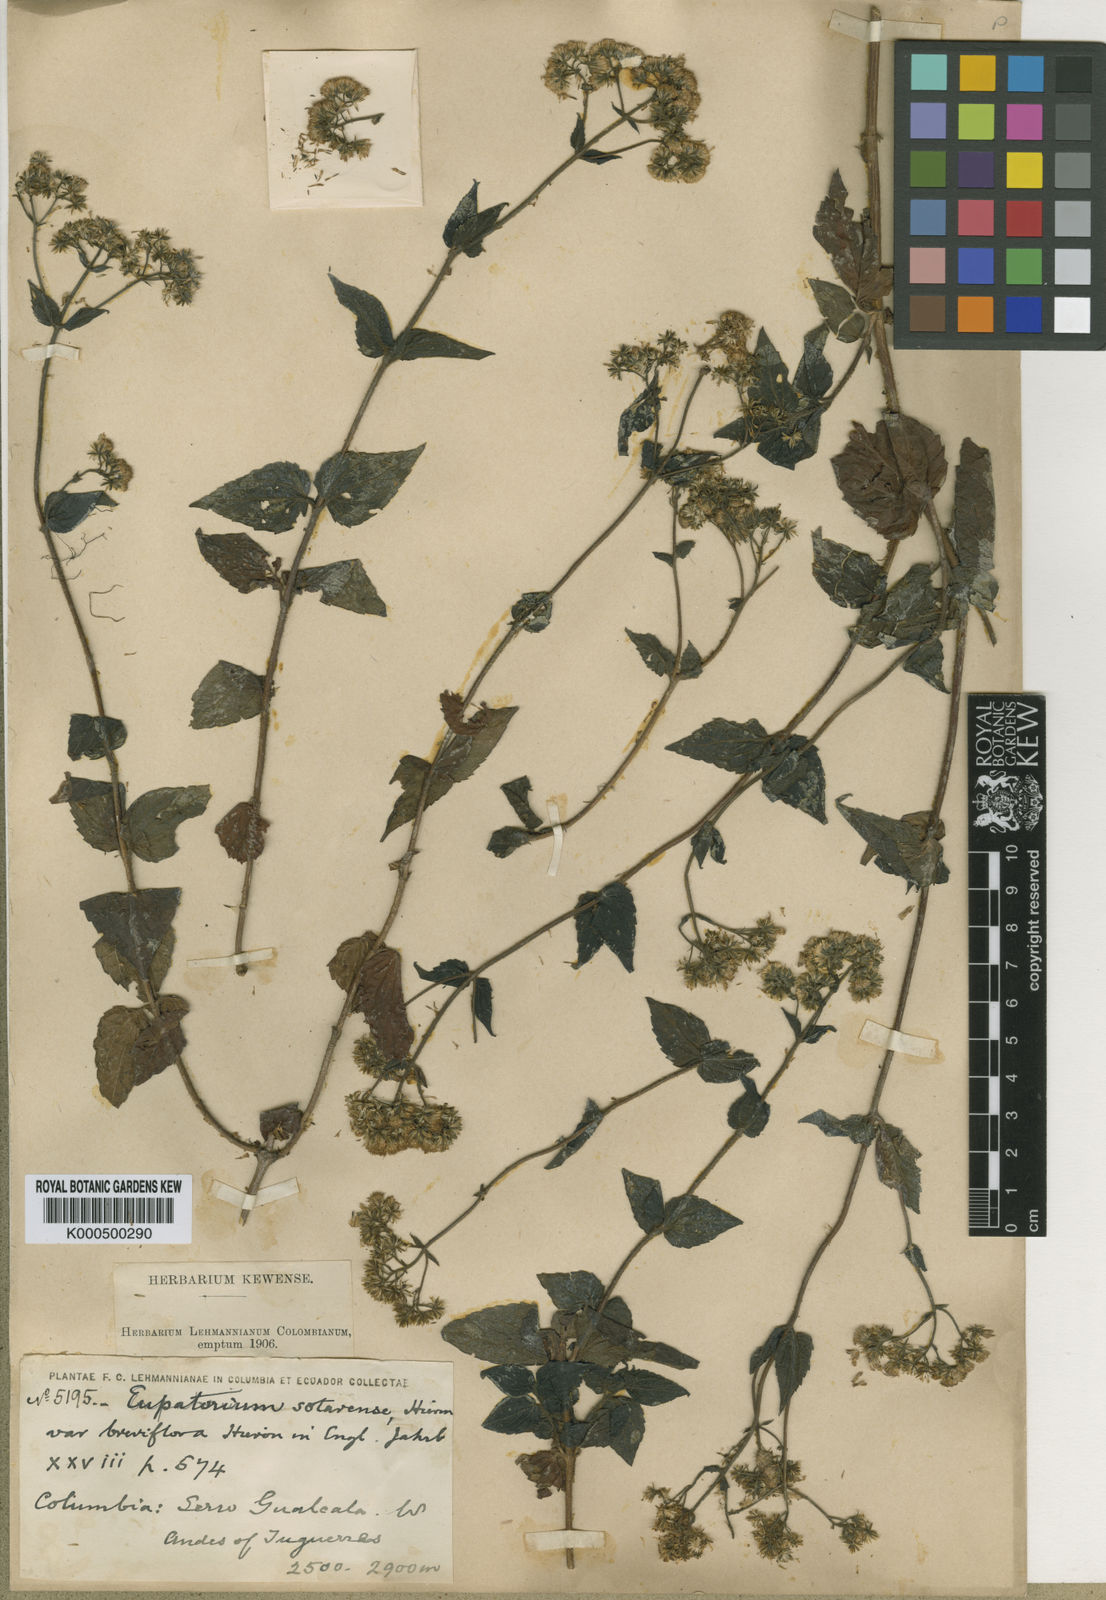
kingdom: Plantae
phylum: Tracheophyta
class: Magnoliopsida
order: Asterales
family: Asteraceae
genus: Ageratina
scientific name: Ageratina sotarensis
